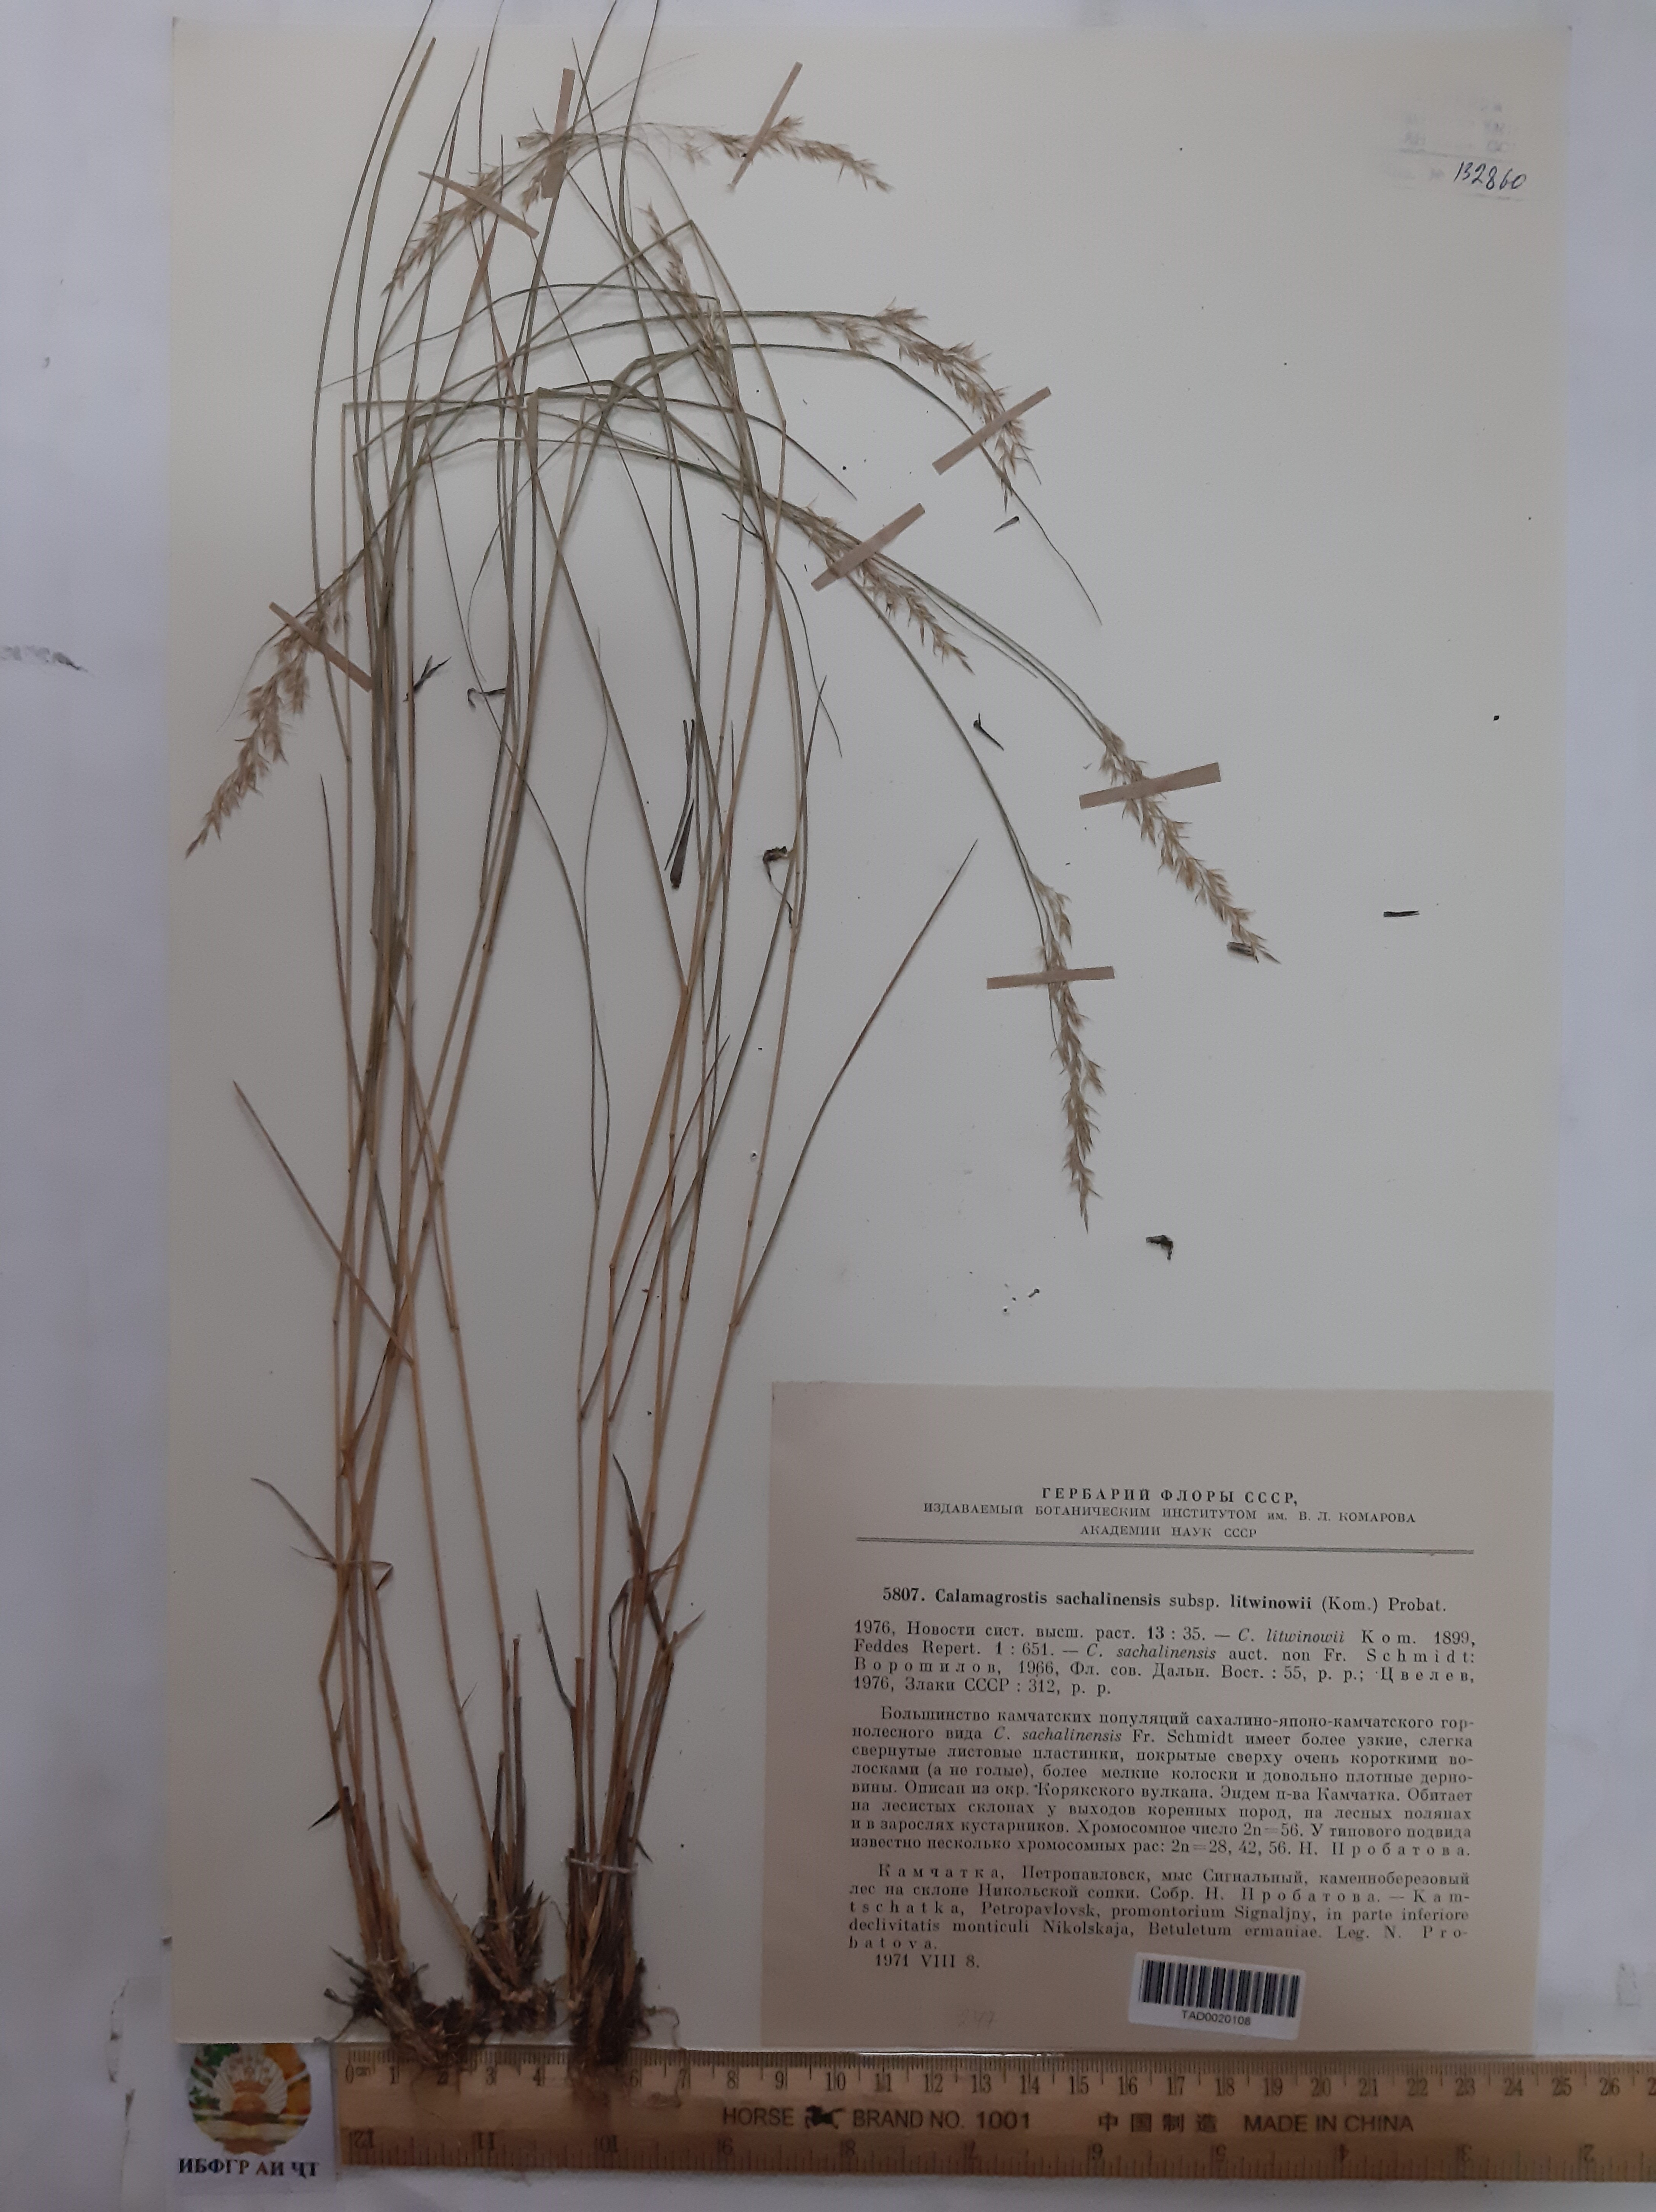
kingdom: Plantae
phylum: Tracheophyta
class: Liliopsida
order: Poales
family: Poaceae
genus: Calamagrostis
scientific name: Calamagrostis sachalinensis
